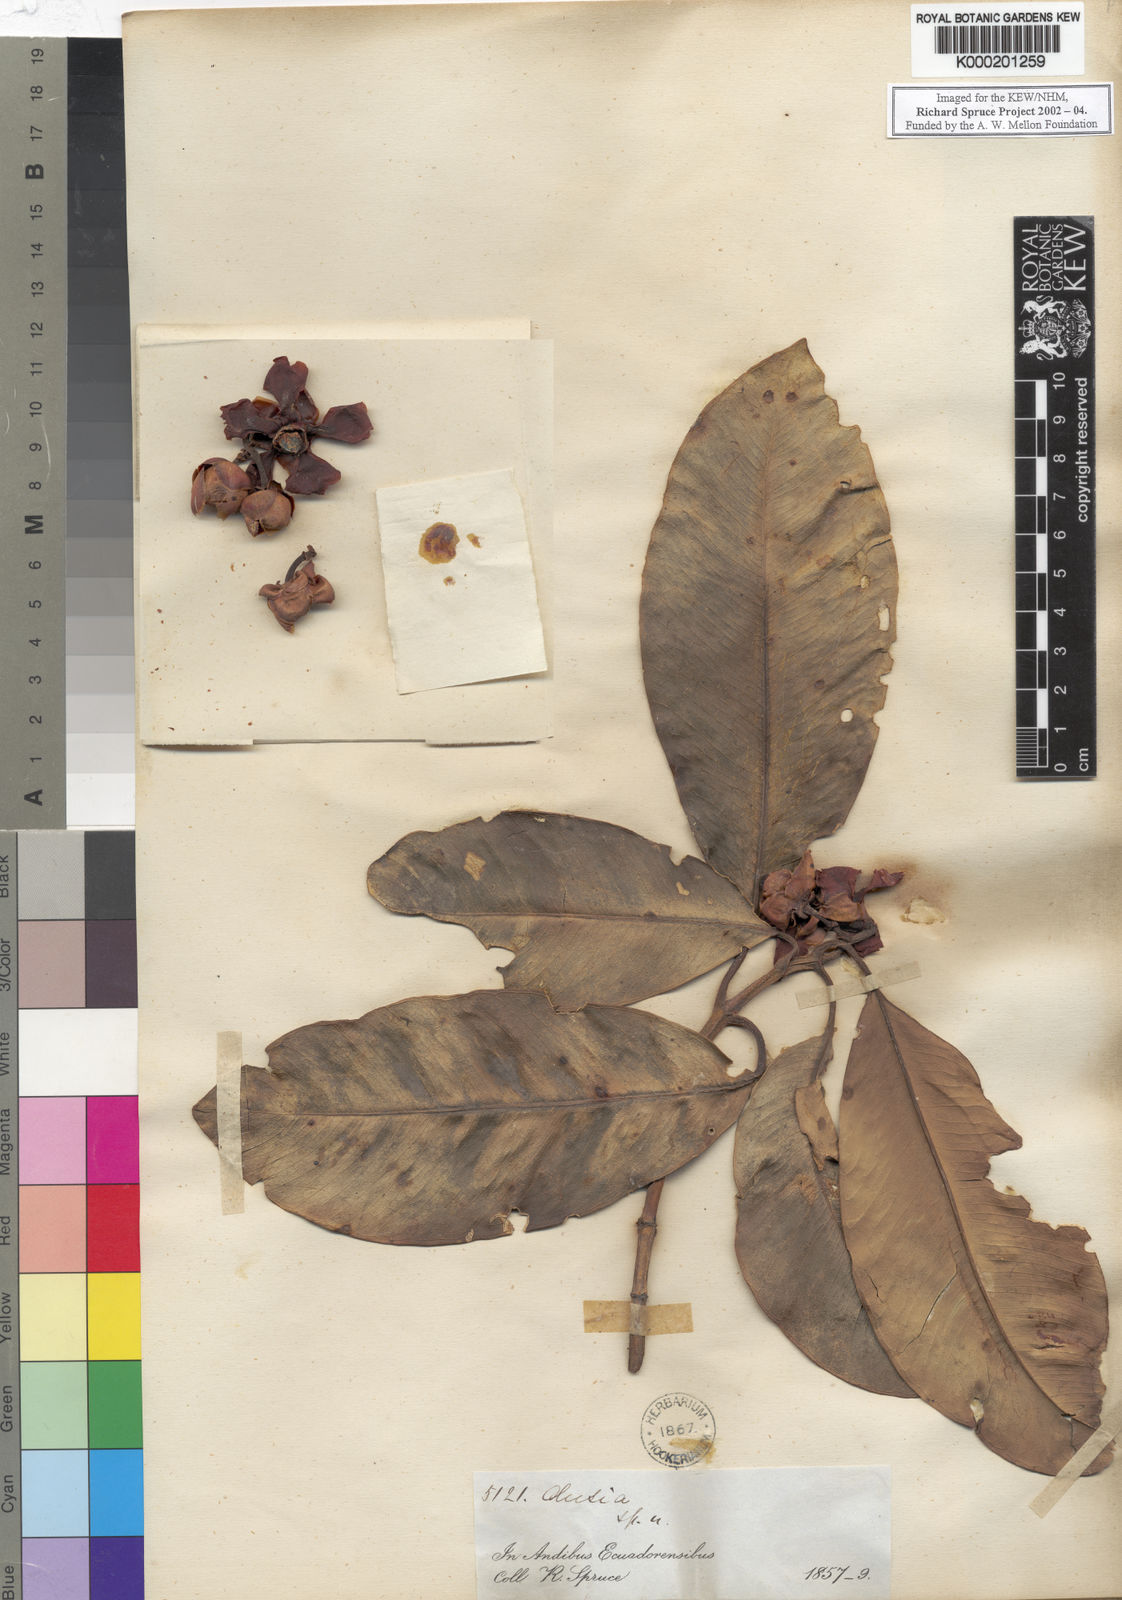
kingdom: Plantae
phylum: Tracheophyta
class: Magnoliopsida
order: Malpighiales
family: Clusiaceae
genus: Clusia
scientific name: Clusia pulcherrima
